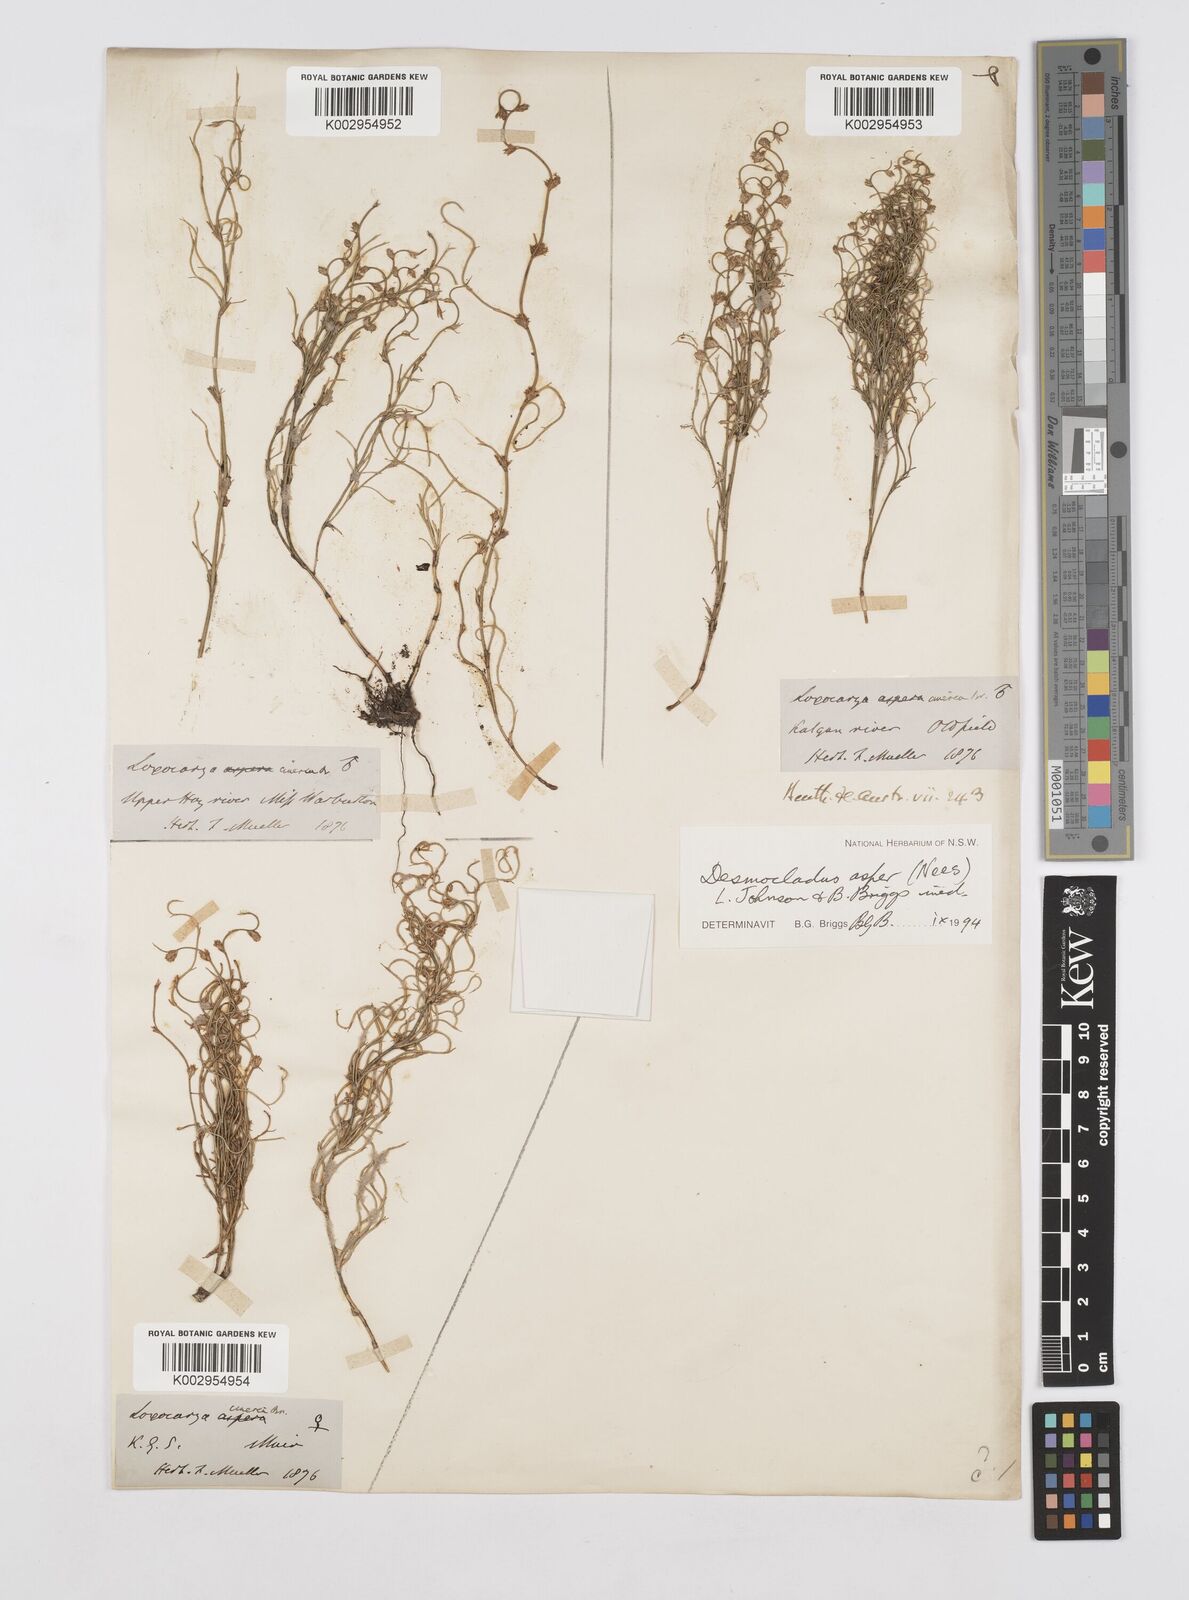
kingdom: Plantae
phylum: Tracheophyta
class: Liliopsida
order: Poales
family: Restionaceae
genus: Desmocladus
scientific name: Desmocladus asper
